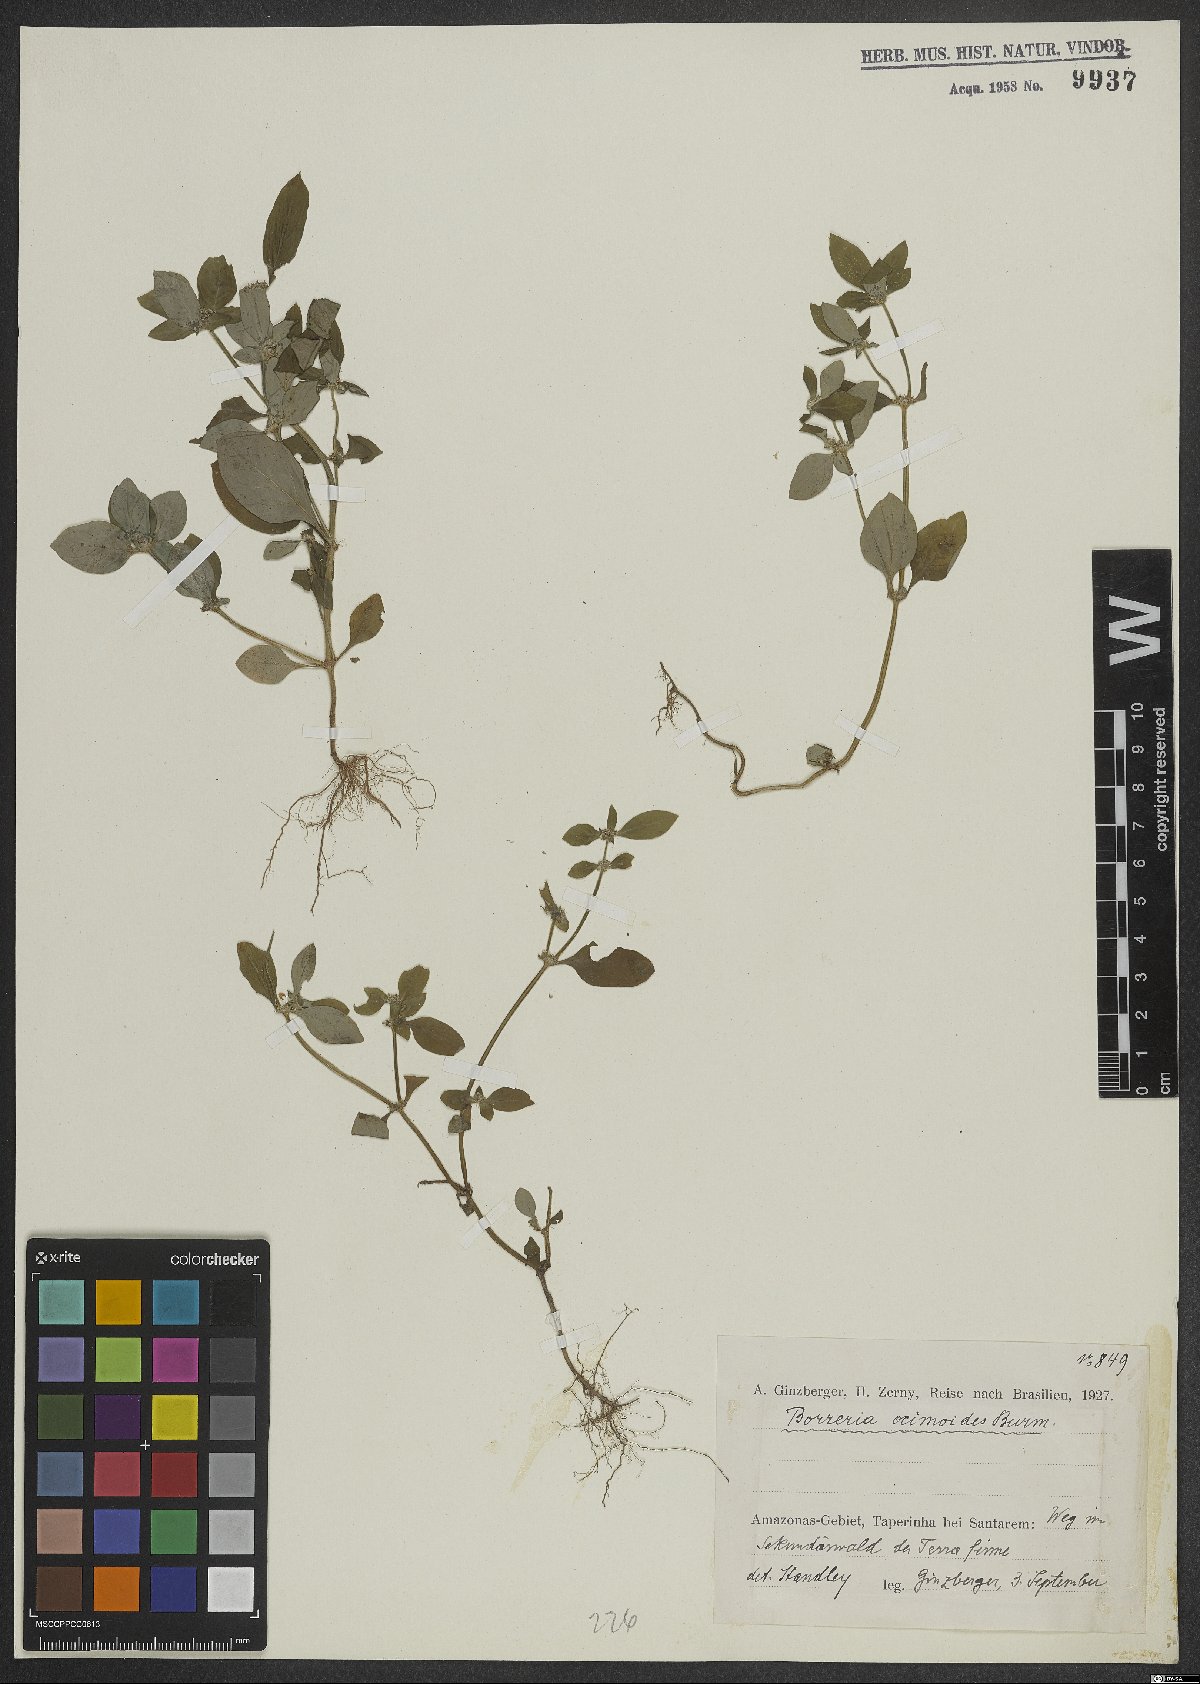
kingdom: Plantae
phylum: Tracheophyta
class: Magnoliopsida
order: Gentianales
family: Rubiaceae
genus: Spermacoce
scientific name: Spermacoce ocymoides
